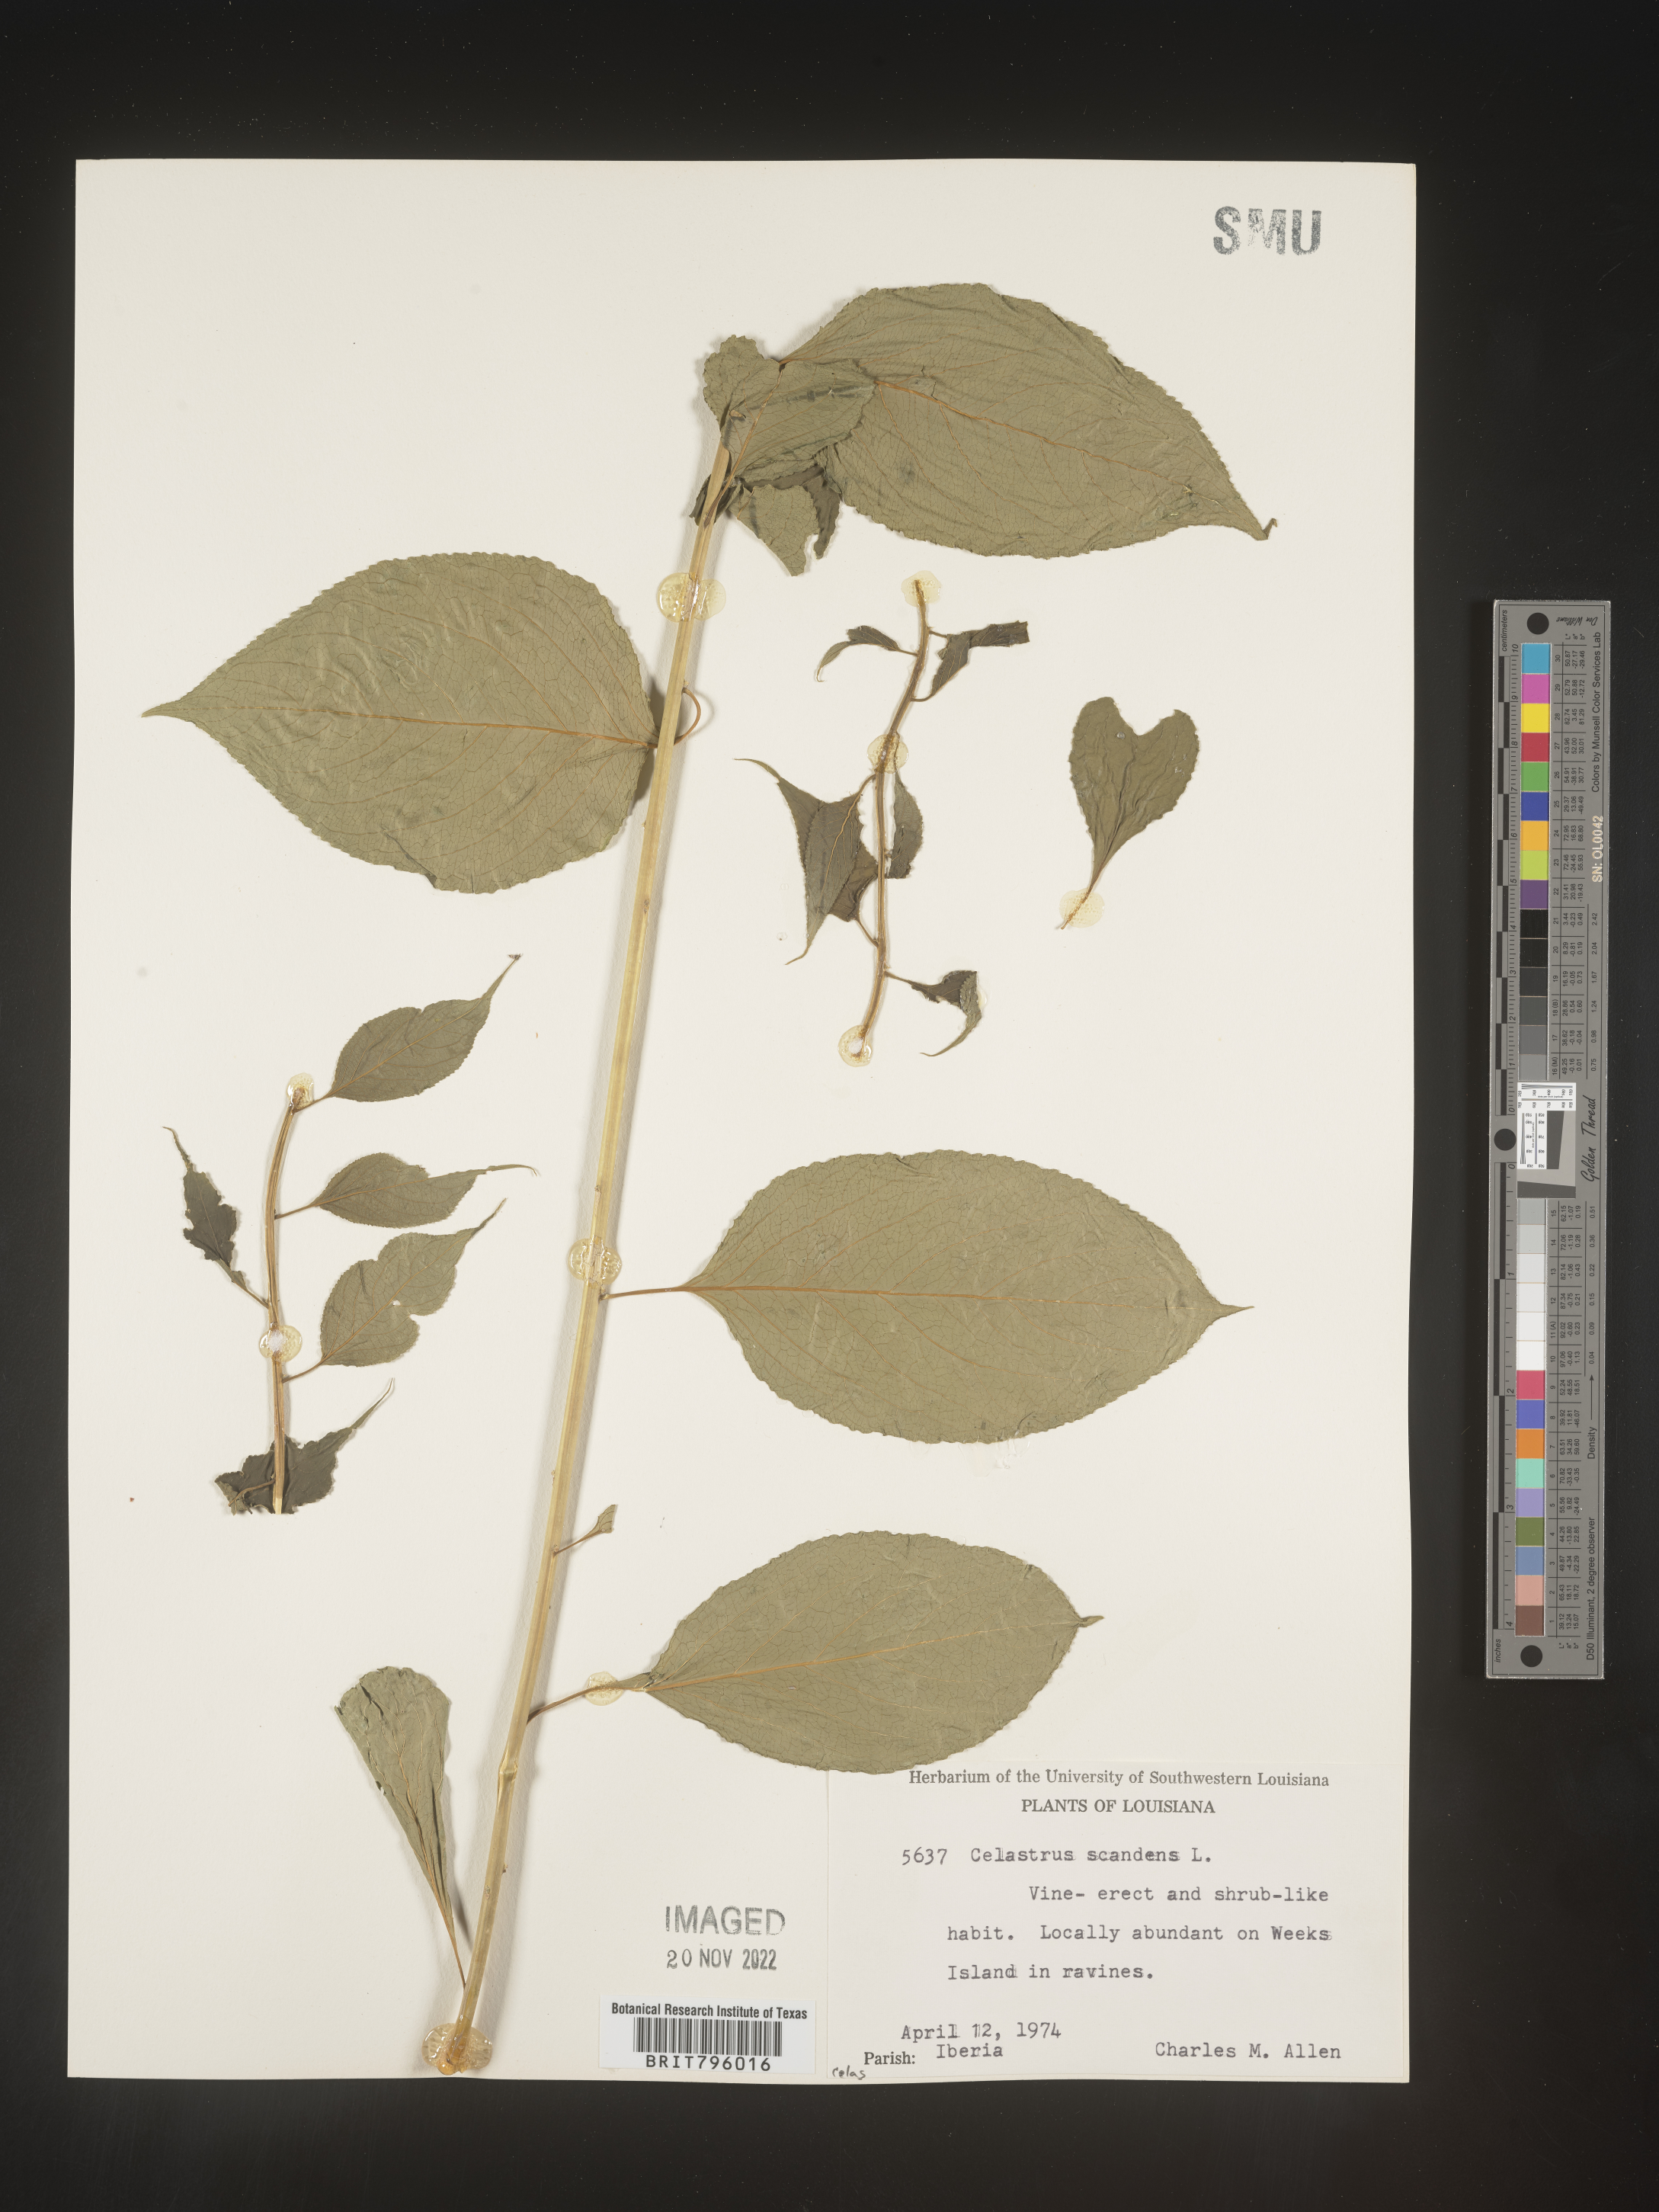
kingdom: Plantae
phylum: Tracheophyta
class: Magnoliopsida
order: Celastrales
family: Celastraceae
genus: Celastrus
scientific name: Celastrus scandens
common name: American bittersweet
